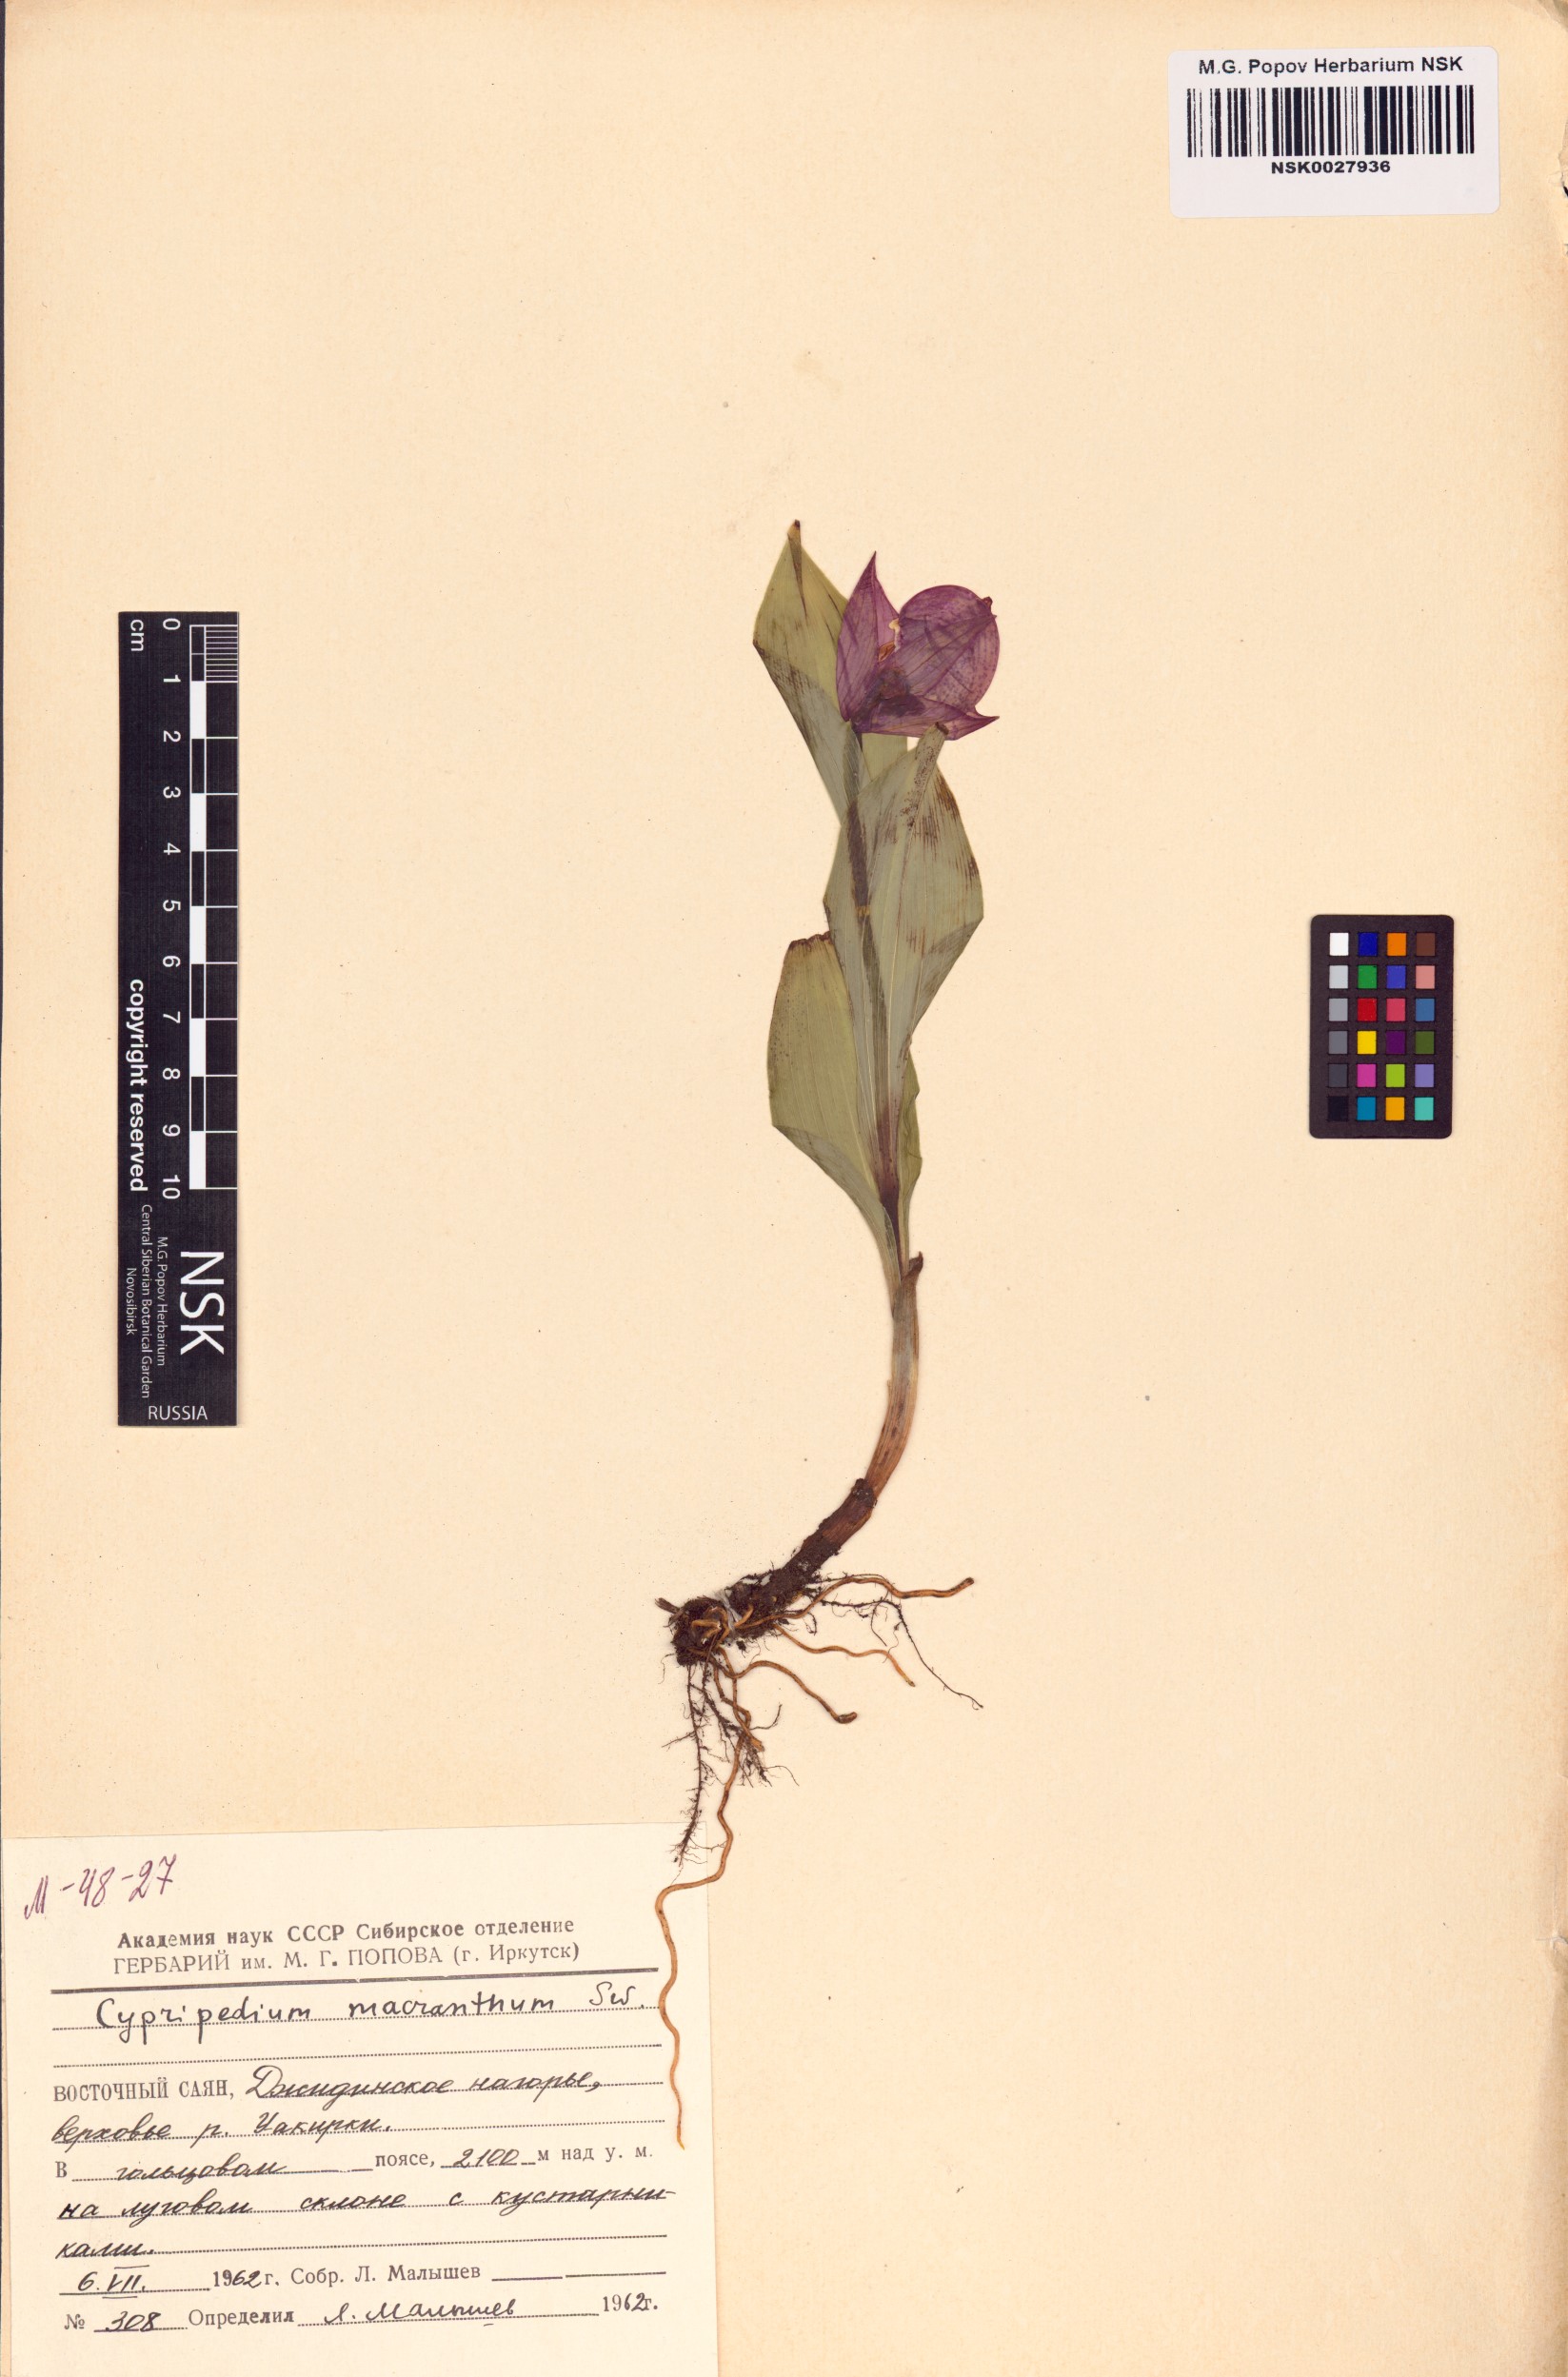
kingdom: Plantae
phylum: Tracheophyta
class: Liliopsida
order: Asparagales
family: Orchidaceae
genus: Cypripedium
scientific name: Cypripedium macranthos
